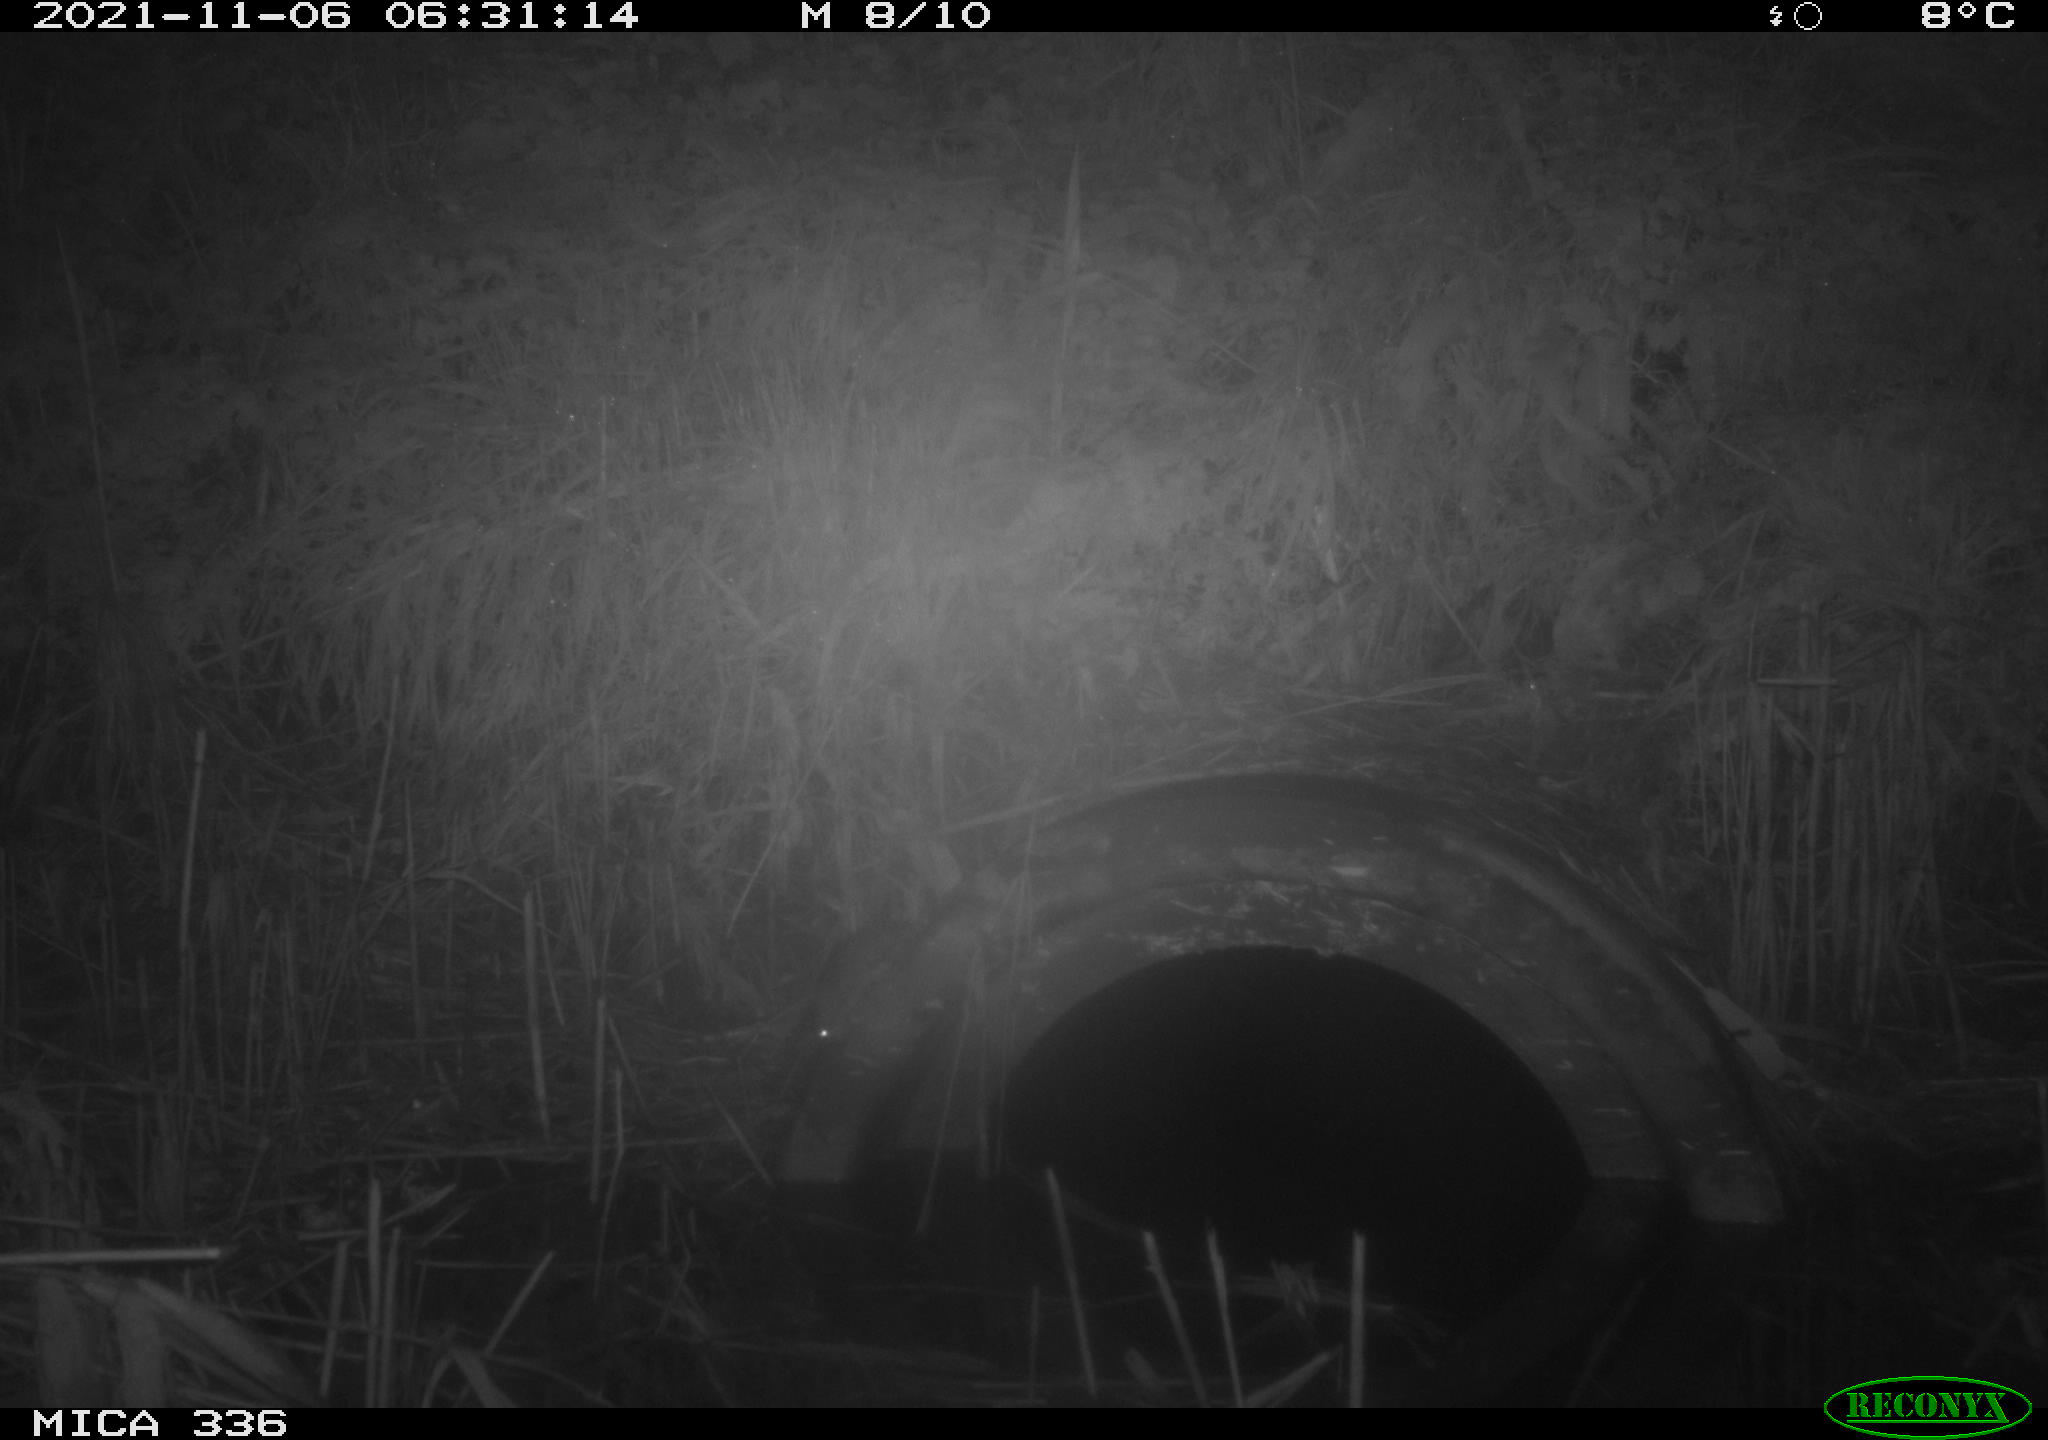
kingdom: Animalia
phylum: Chordata
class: Mammalia
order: Rodentia
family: Muridae
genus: Rattus
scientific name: Rattus norvegicus
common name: Brown rat
